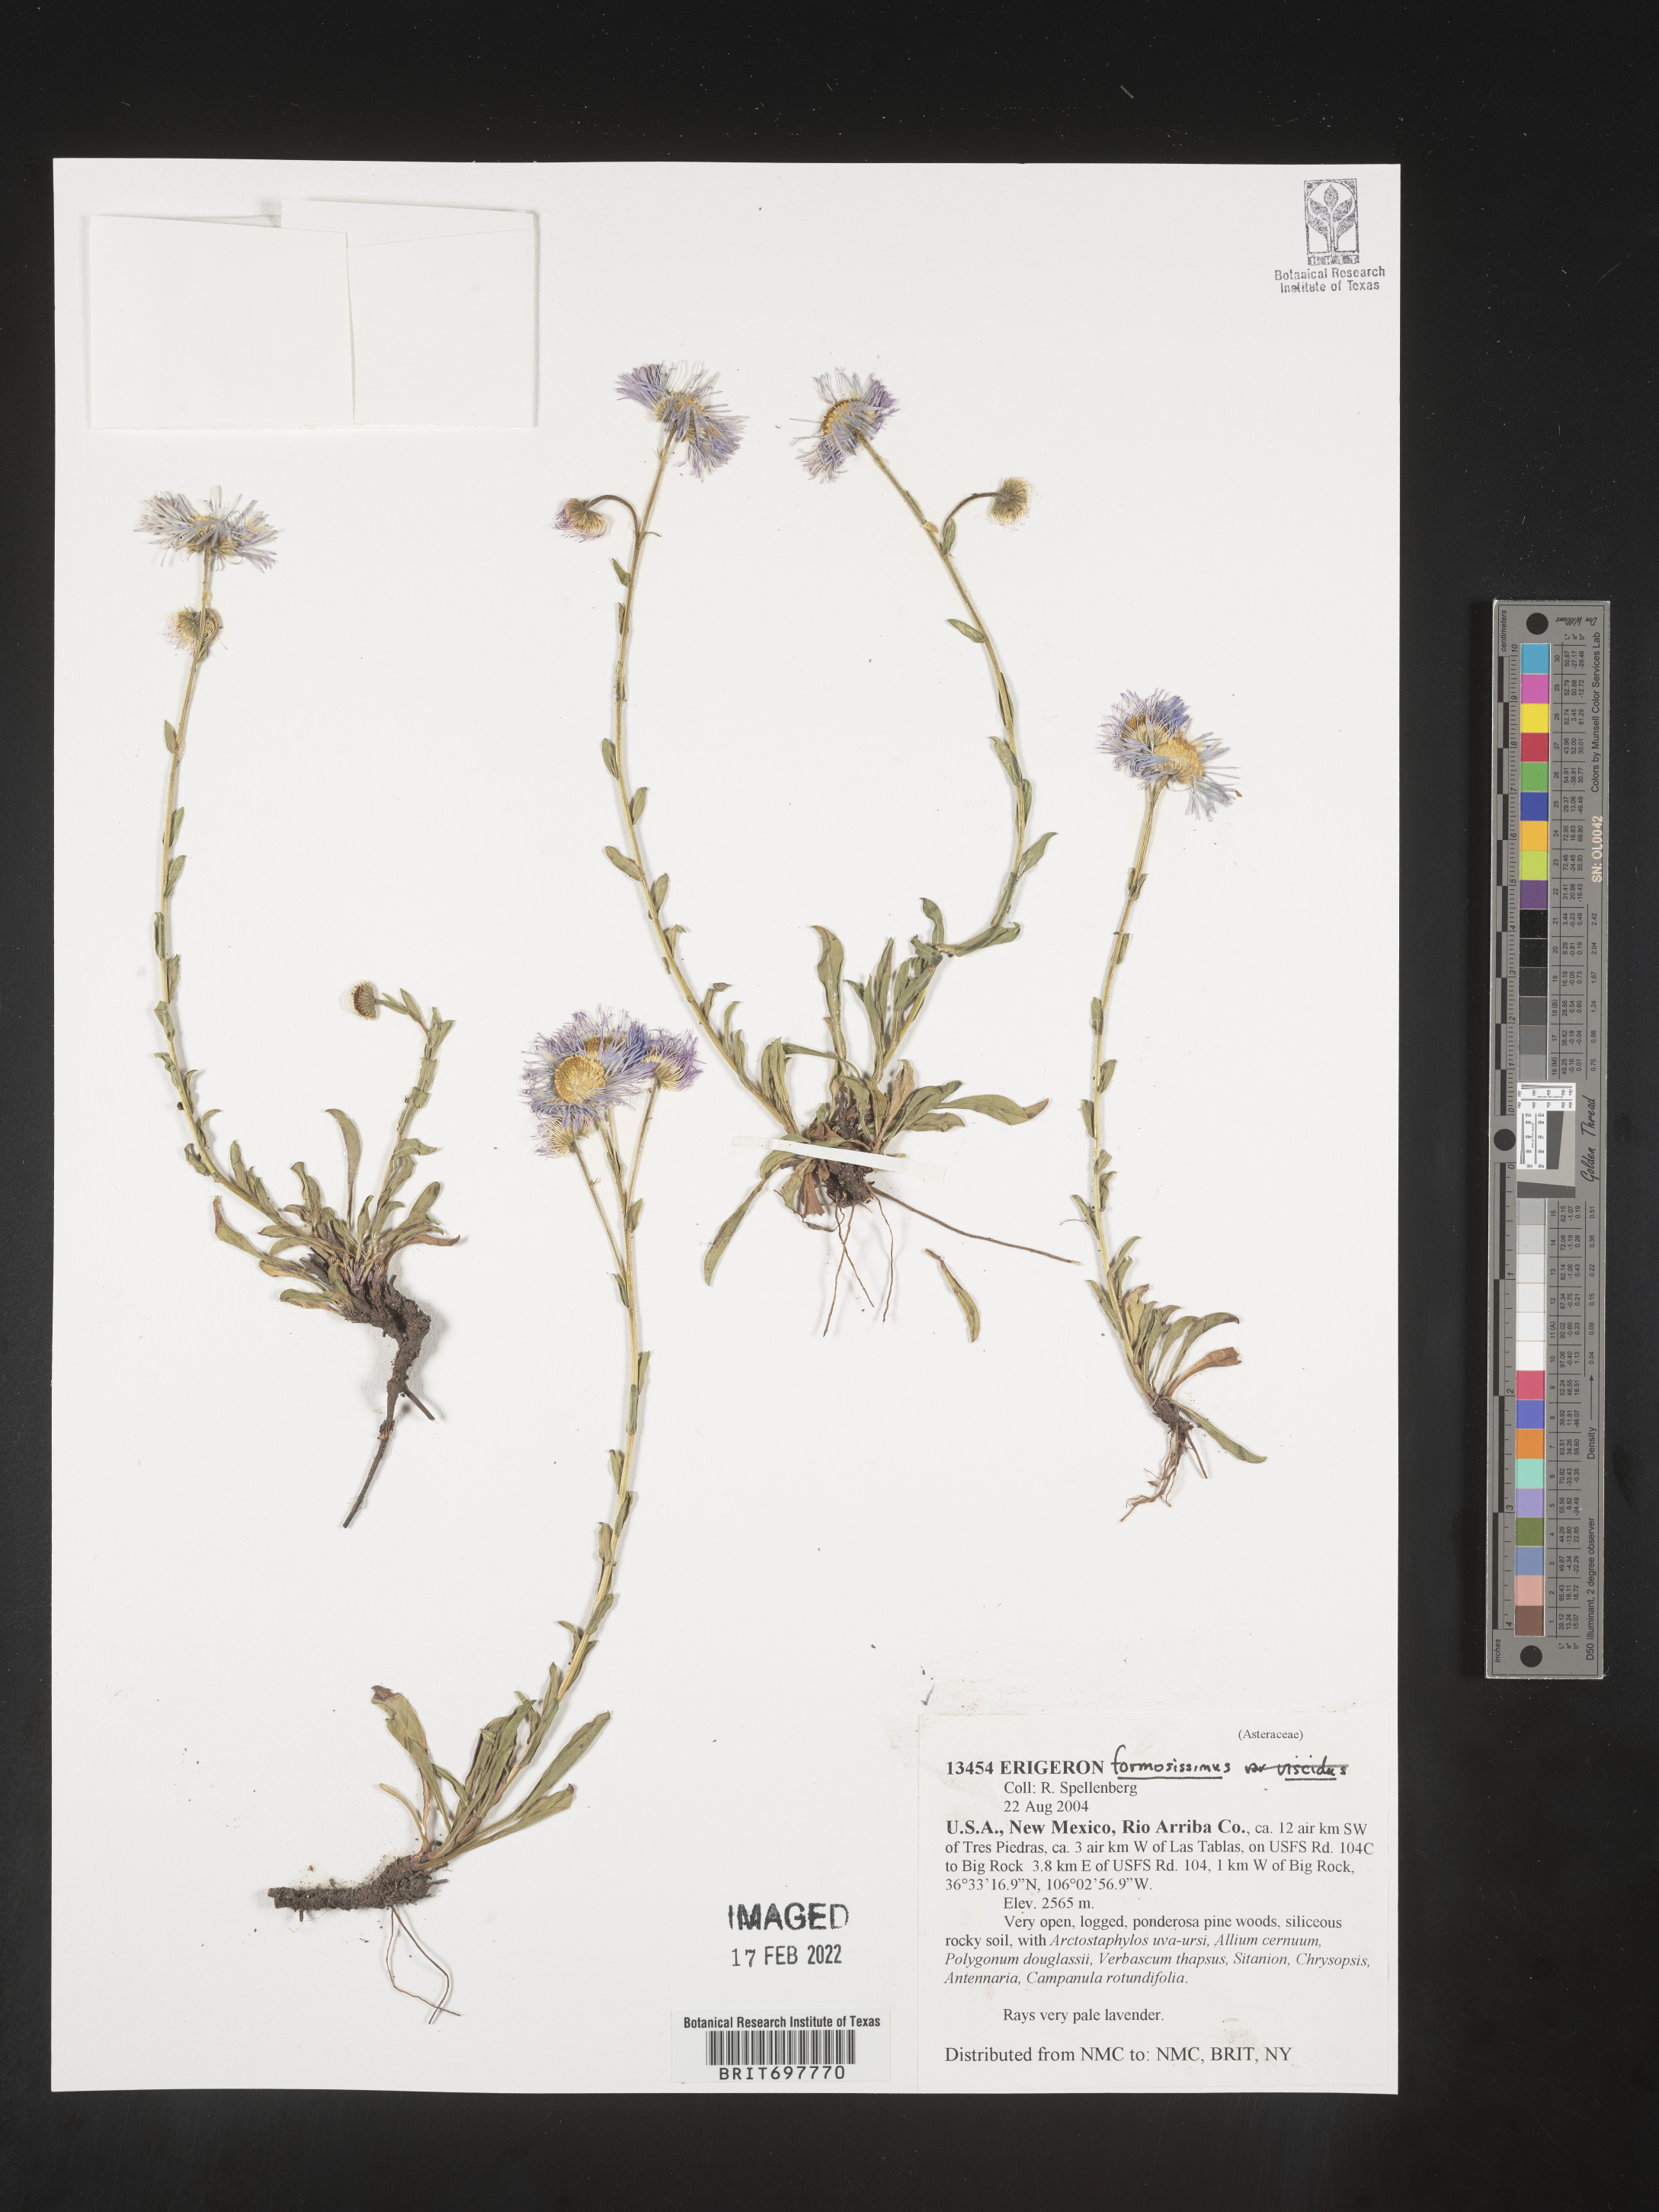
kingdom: Plantae
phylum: Tracheophyta
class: Magnoliopsida
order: Asterales
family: Asteraceae
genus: Erigeron
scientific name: Erigeron formosissimus
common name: Beautiful fleabane
